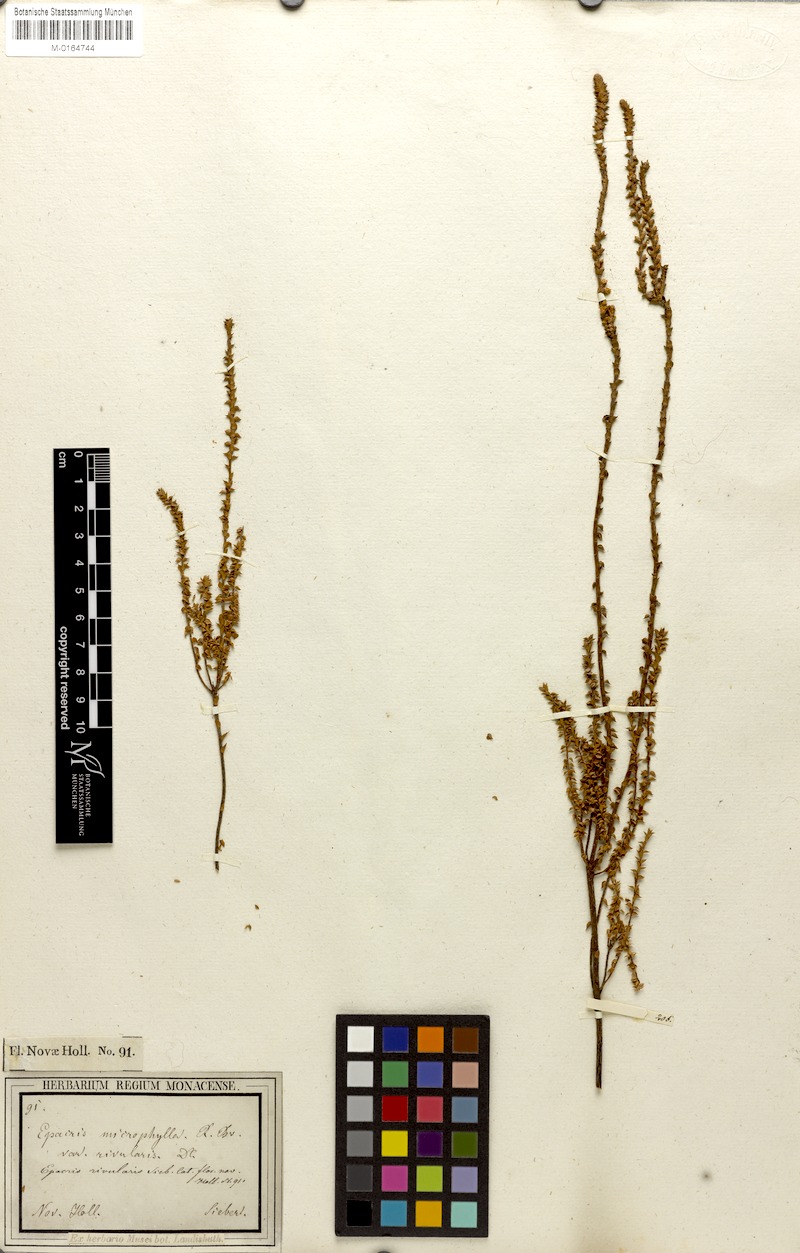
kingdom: Plantae
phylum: Tracheophyta
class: Magnoliopsida
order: Ericales
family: Ericaceae
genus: Epacris
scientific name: Epacris microphylla
